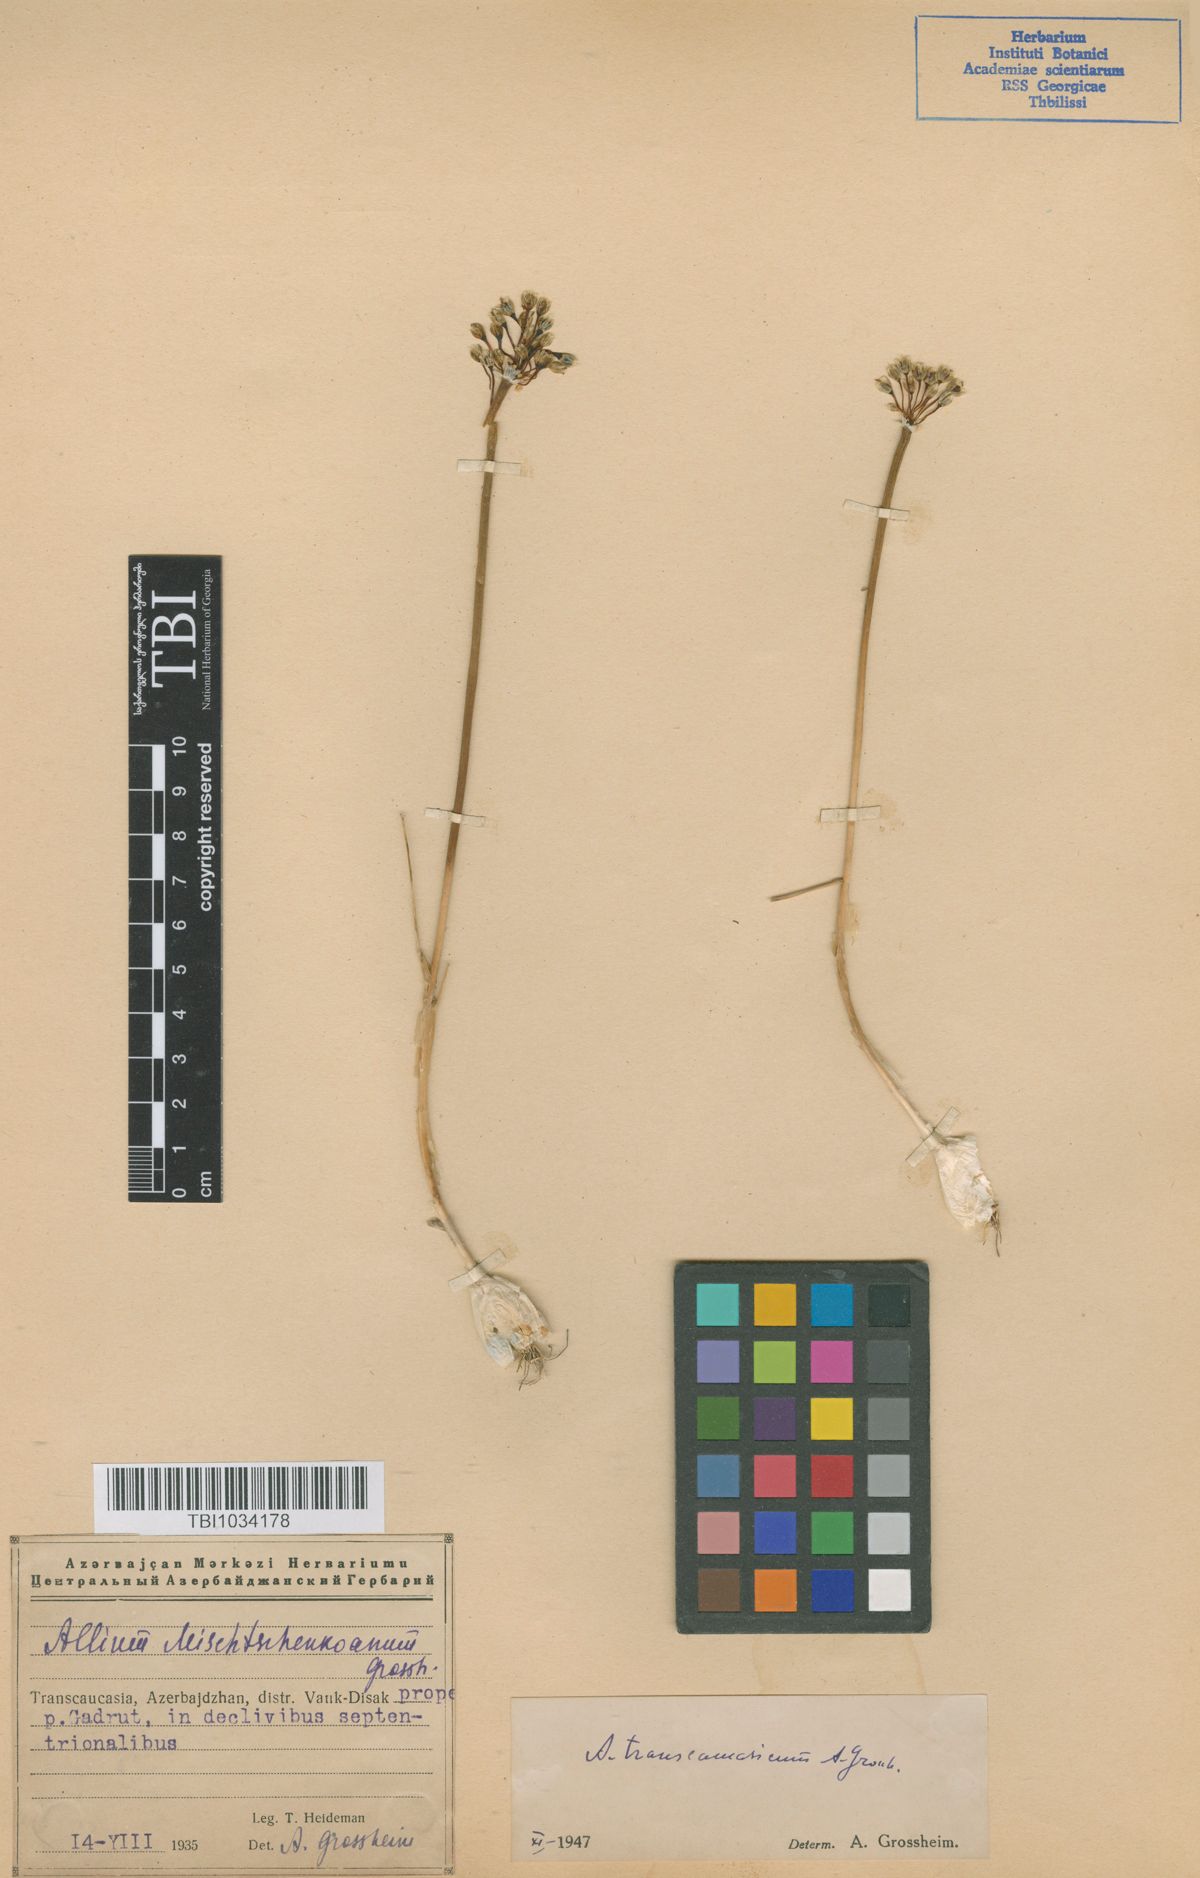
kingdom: Plantae
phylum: Tracheophyta
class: Liliopsida
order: Asparagales
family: Amaryllidaceae
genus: Allium
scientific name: Allium affine
